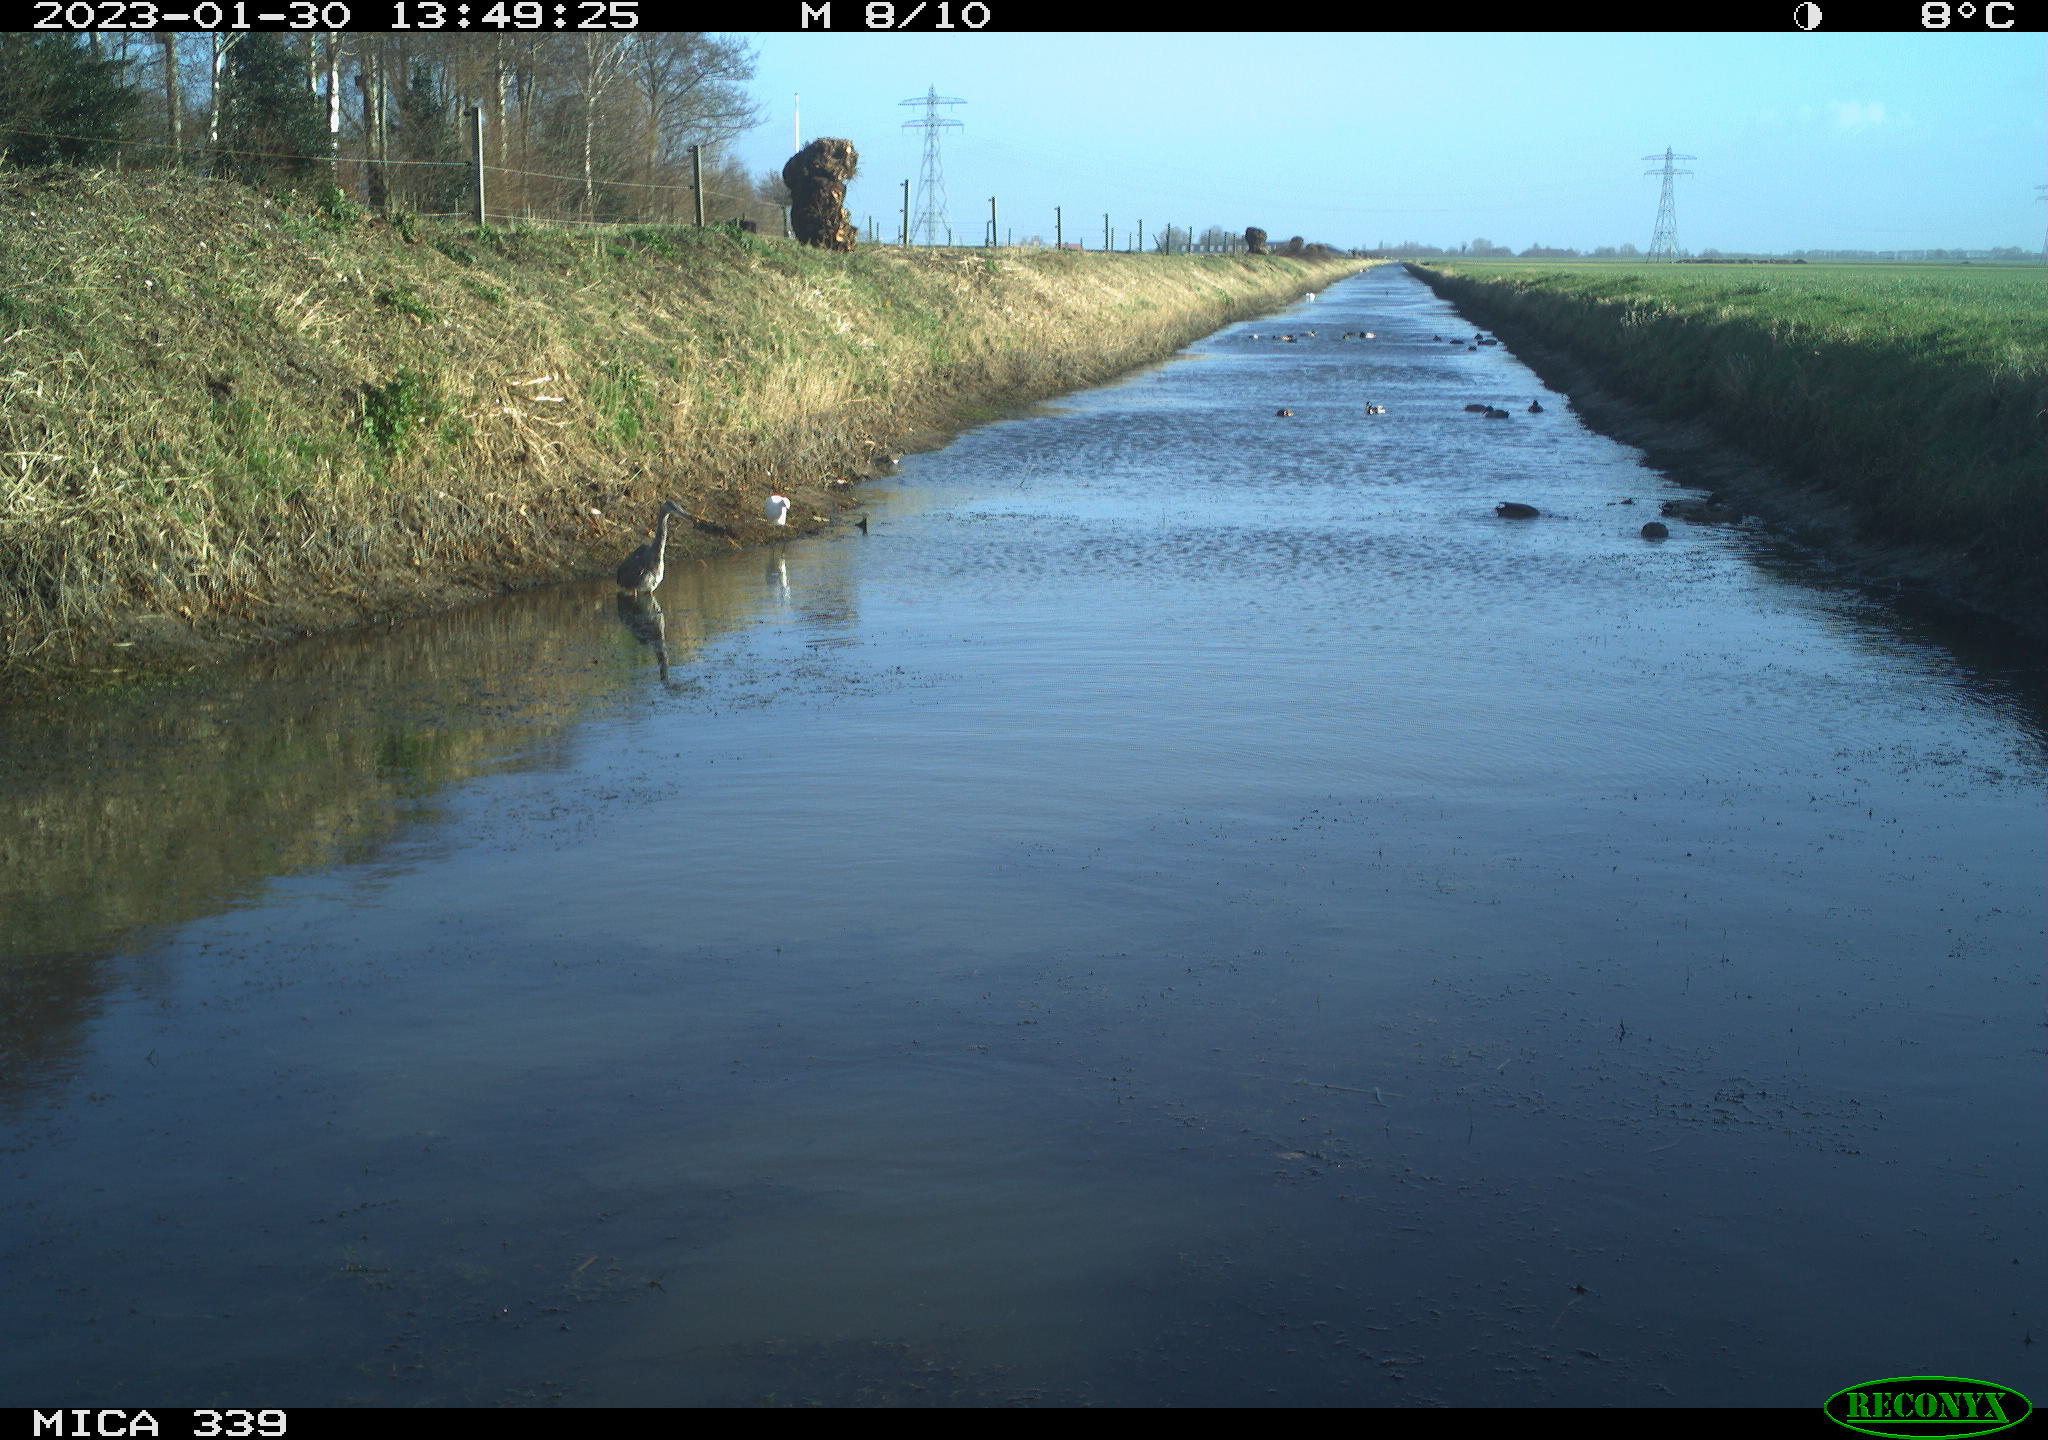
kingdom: Animalia
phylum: Chordata
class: Aves
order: Pelecaniformes
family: Ardeidae
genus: Ardea
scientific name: Ardea alba
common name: Great egret
